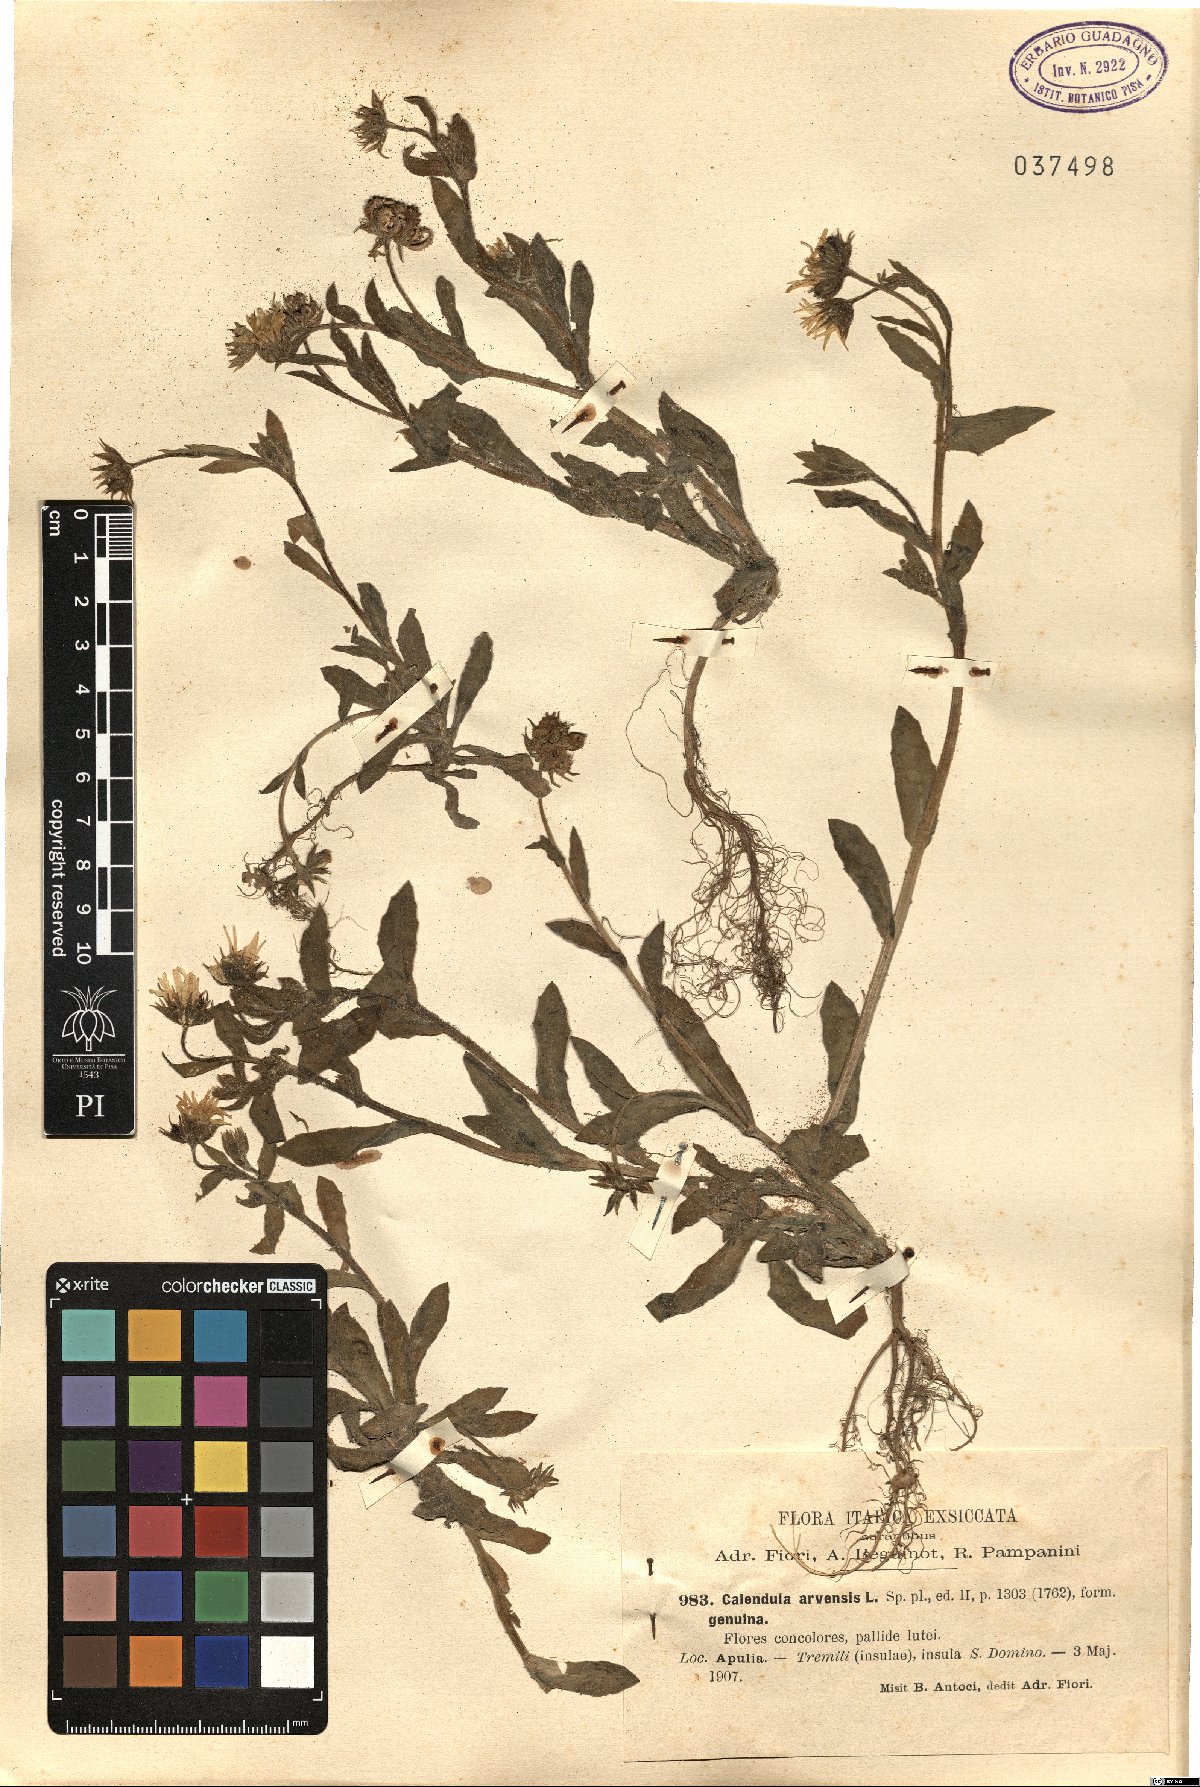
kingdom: Plantae
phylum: Tracheophyta
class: Magnoliopsida
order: Asterales
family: Asteraceae
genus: Calendula
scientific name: Calendula arvensis
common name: Field marigold
